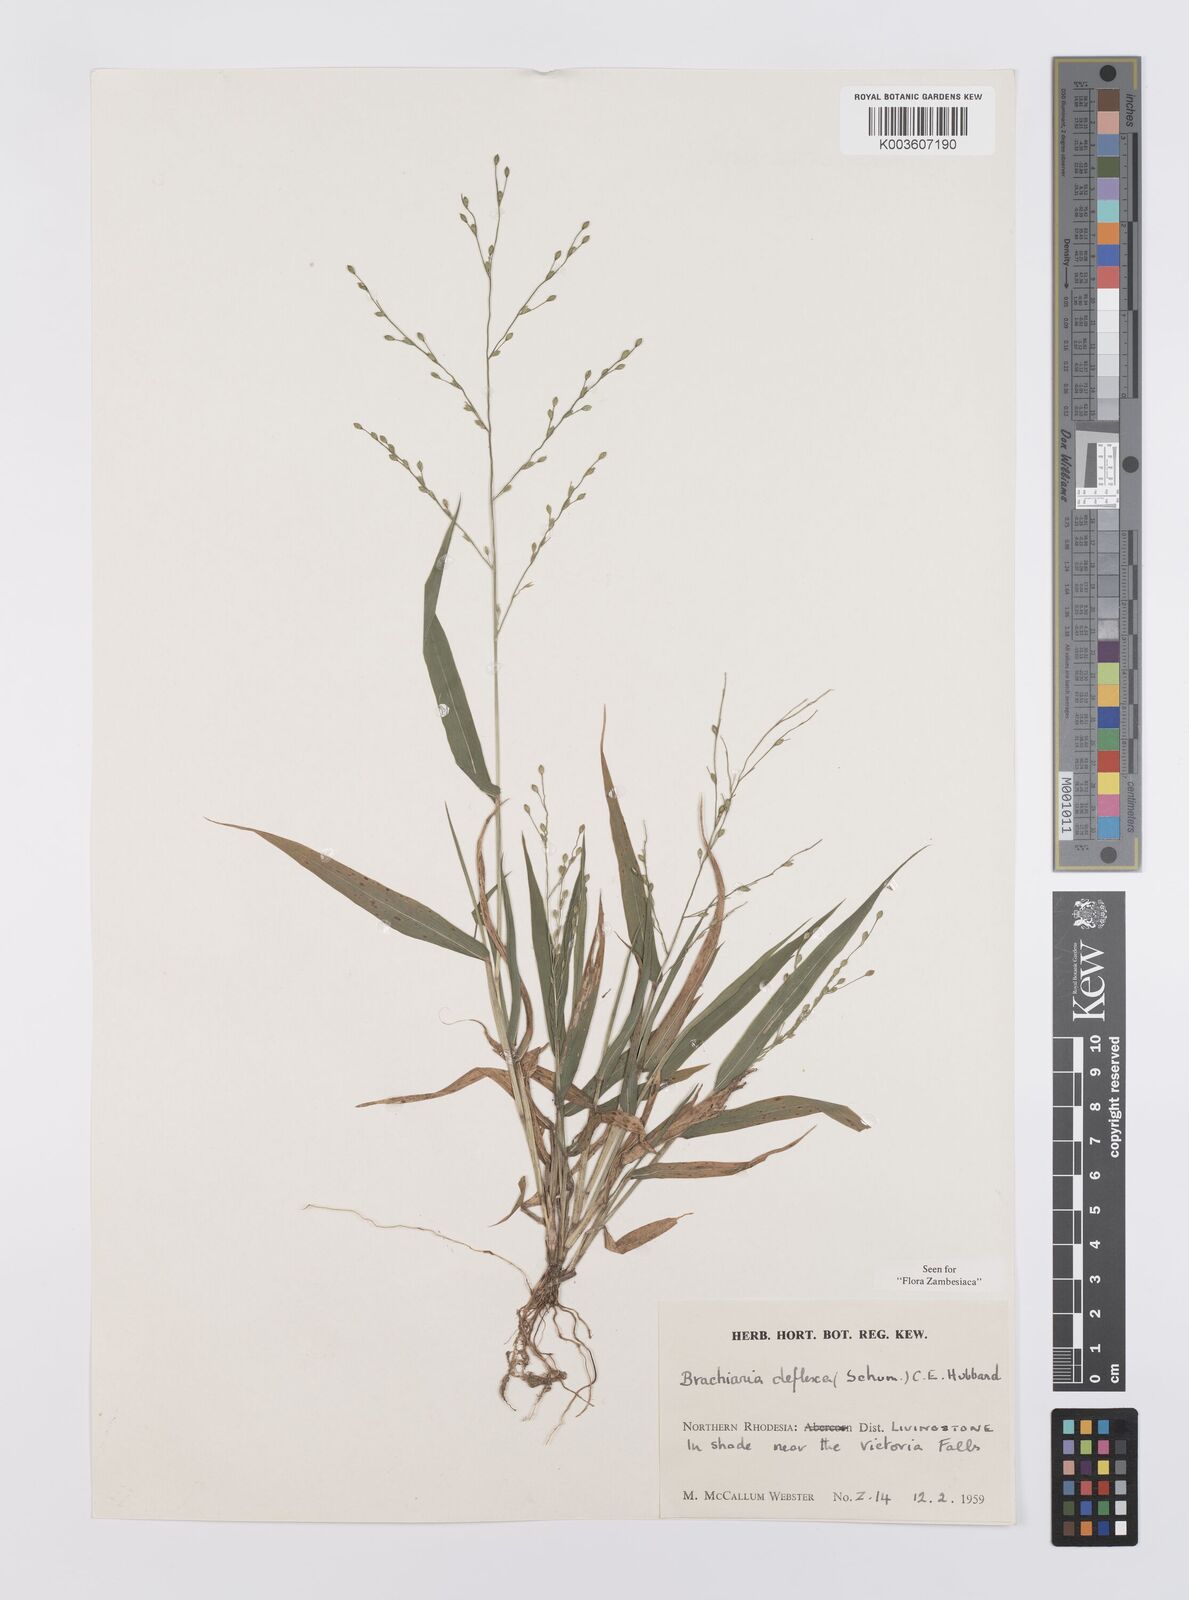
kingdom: Plantae
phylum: Tracheophyta
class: Liliopsida
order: Poales
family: Poaceae
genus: Urochloa
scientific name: Urochloa deflexa
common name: Guinea millet
